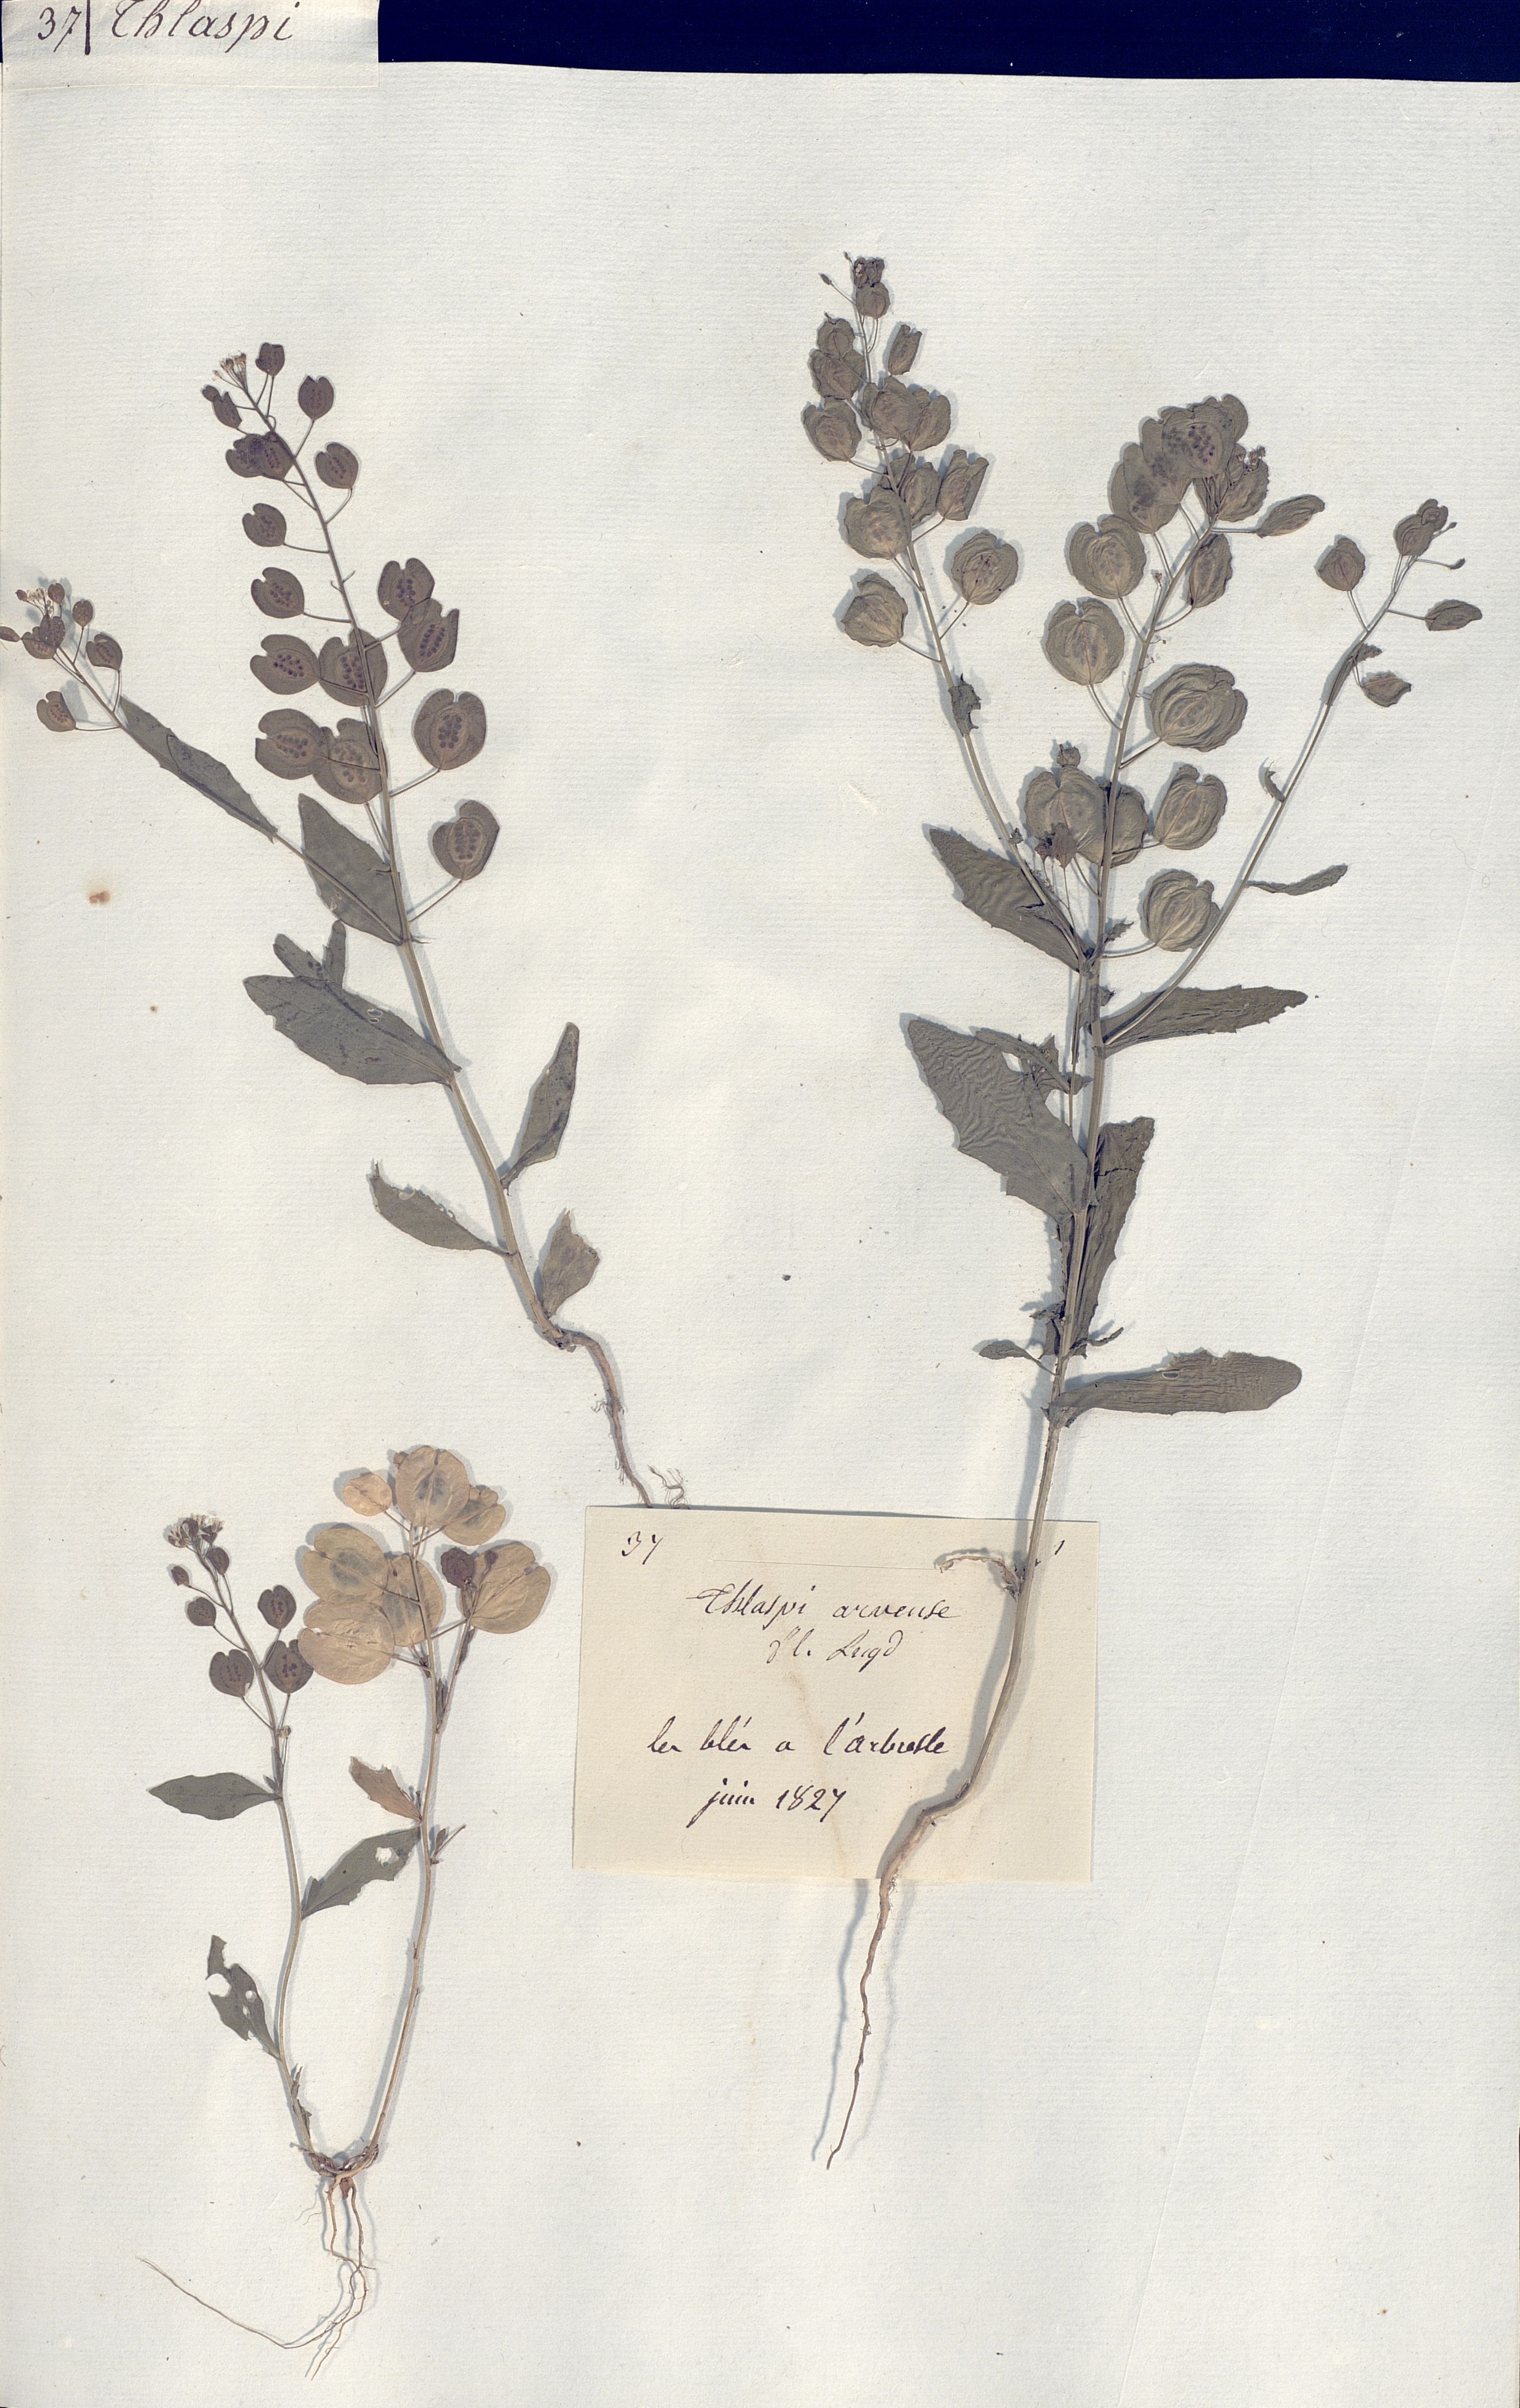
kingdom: Plantae
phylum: Tracheophyta
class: Magnoliopsida
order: Brassicales
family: Brassicaceae
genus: Thlaspi
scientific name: Thlaspi arvense
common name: Field pennycress
